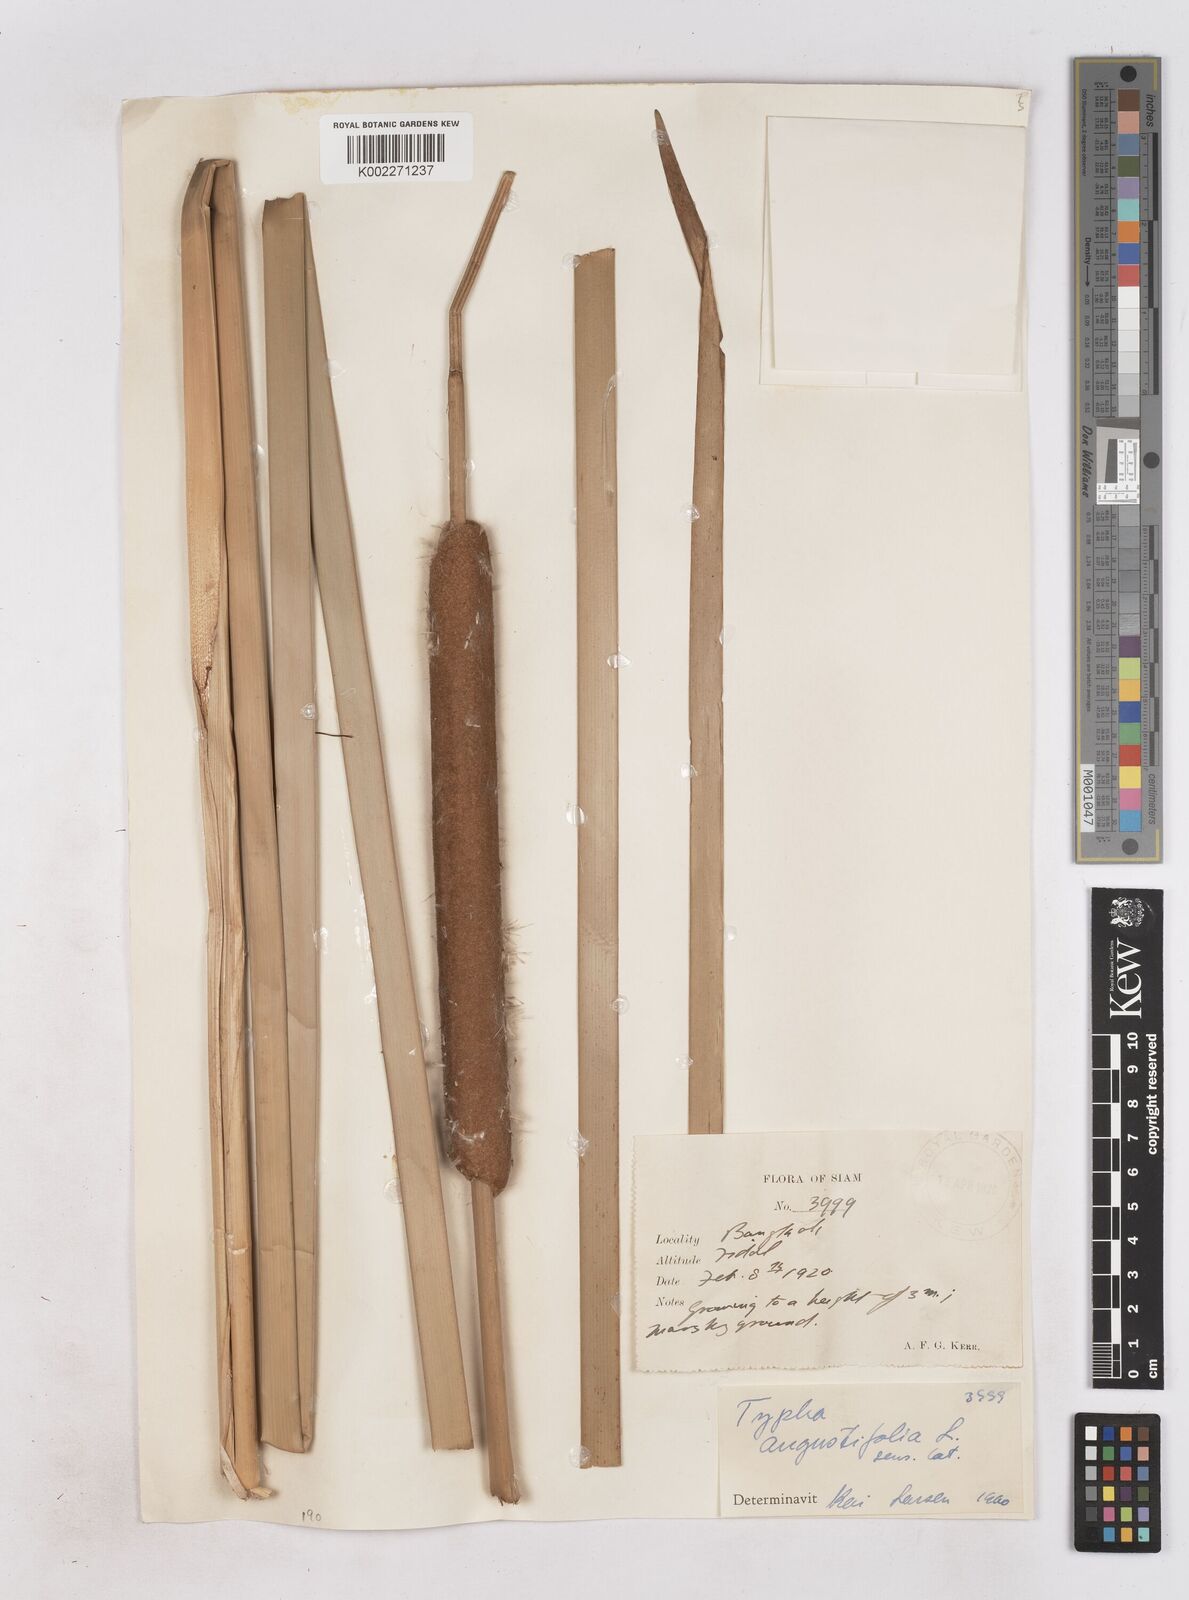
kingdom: Plantae
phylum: Tracheophyta
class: Liliopsida
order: Poales
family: Typhaceae
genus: Typha
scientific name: Typha angustifolia
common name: Lesser bulrush
